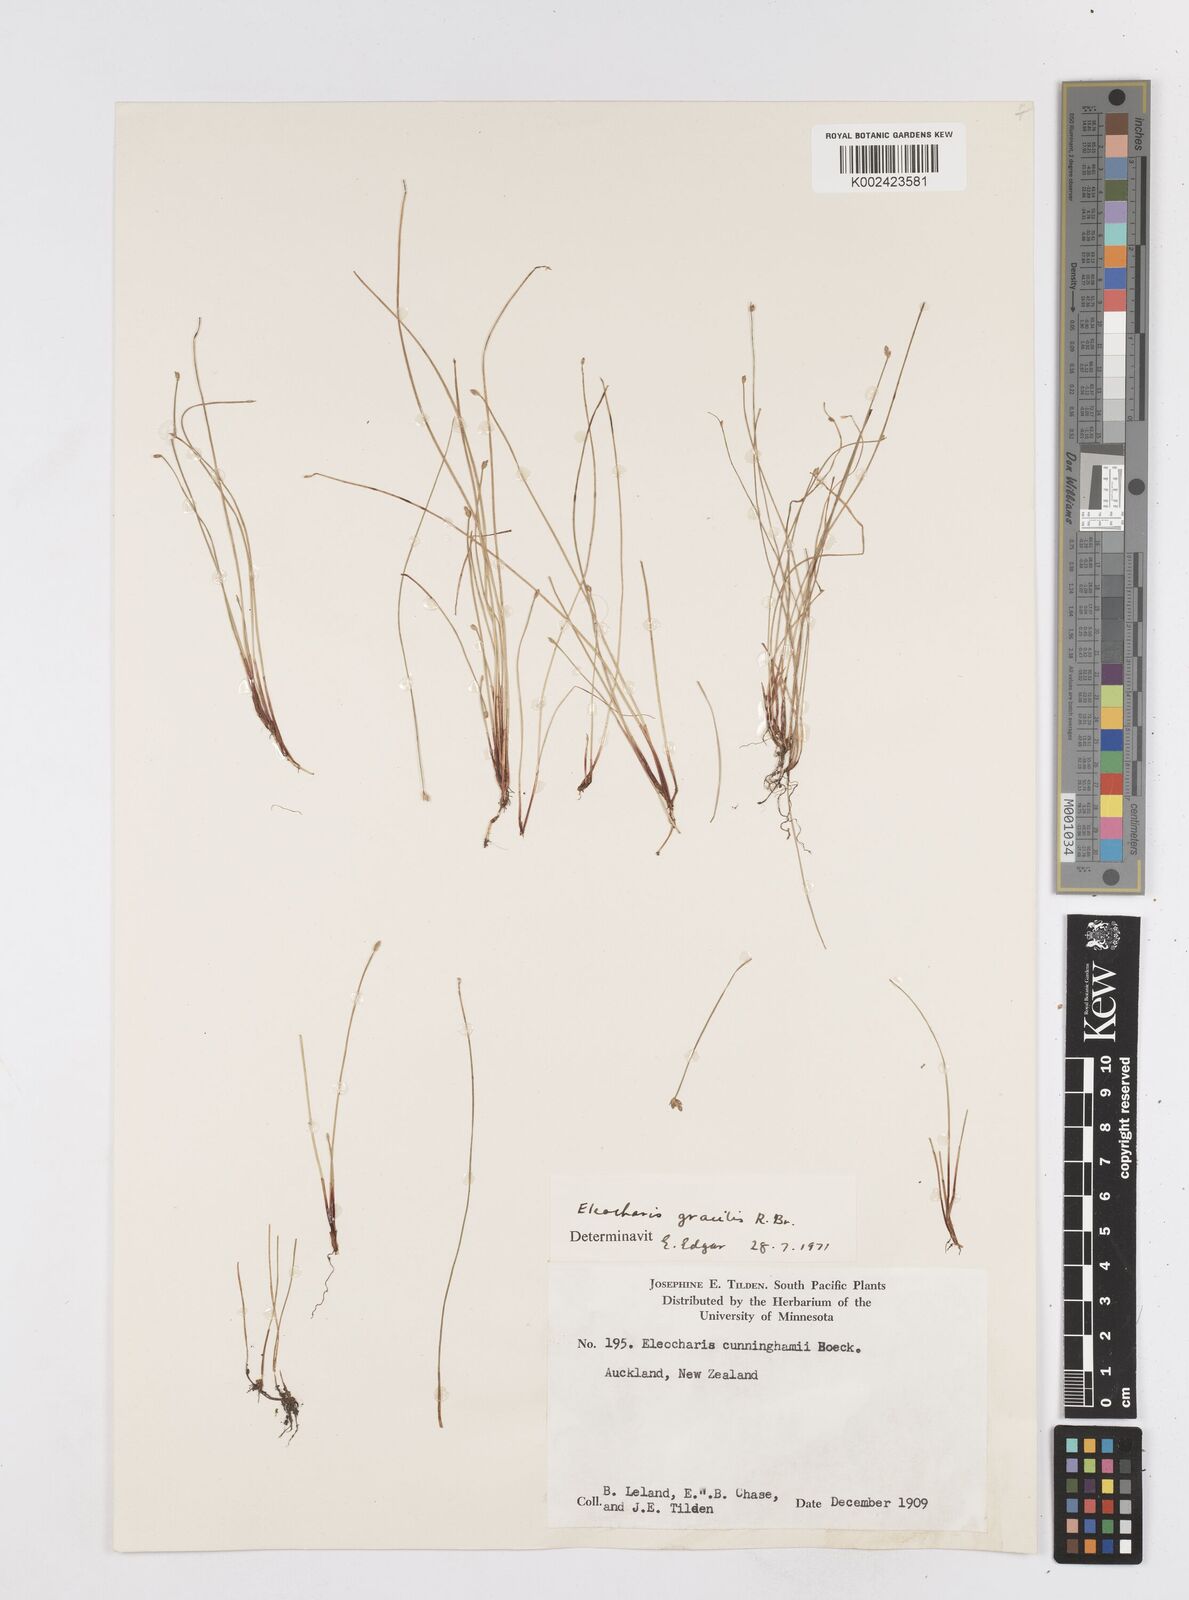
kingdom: Plantae
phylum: Tracheophyta
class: Liliopsida
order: Poales
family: Cyperaceae
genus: Eleocharis
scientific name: Eleocharis gracilis
